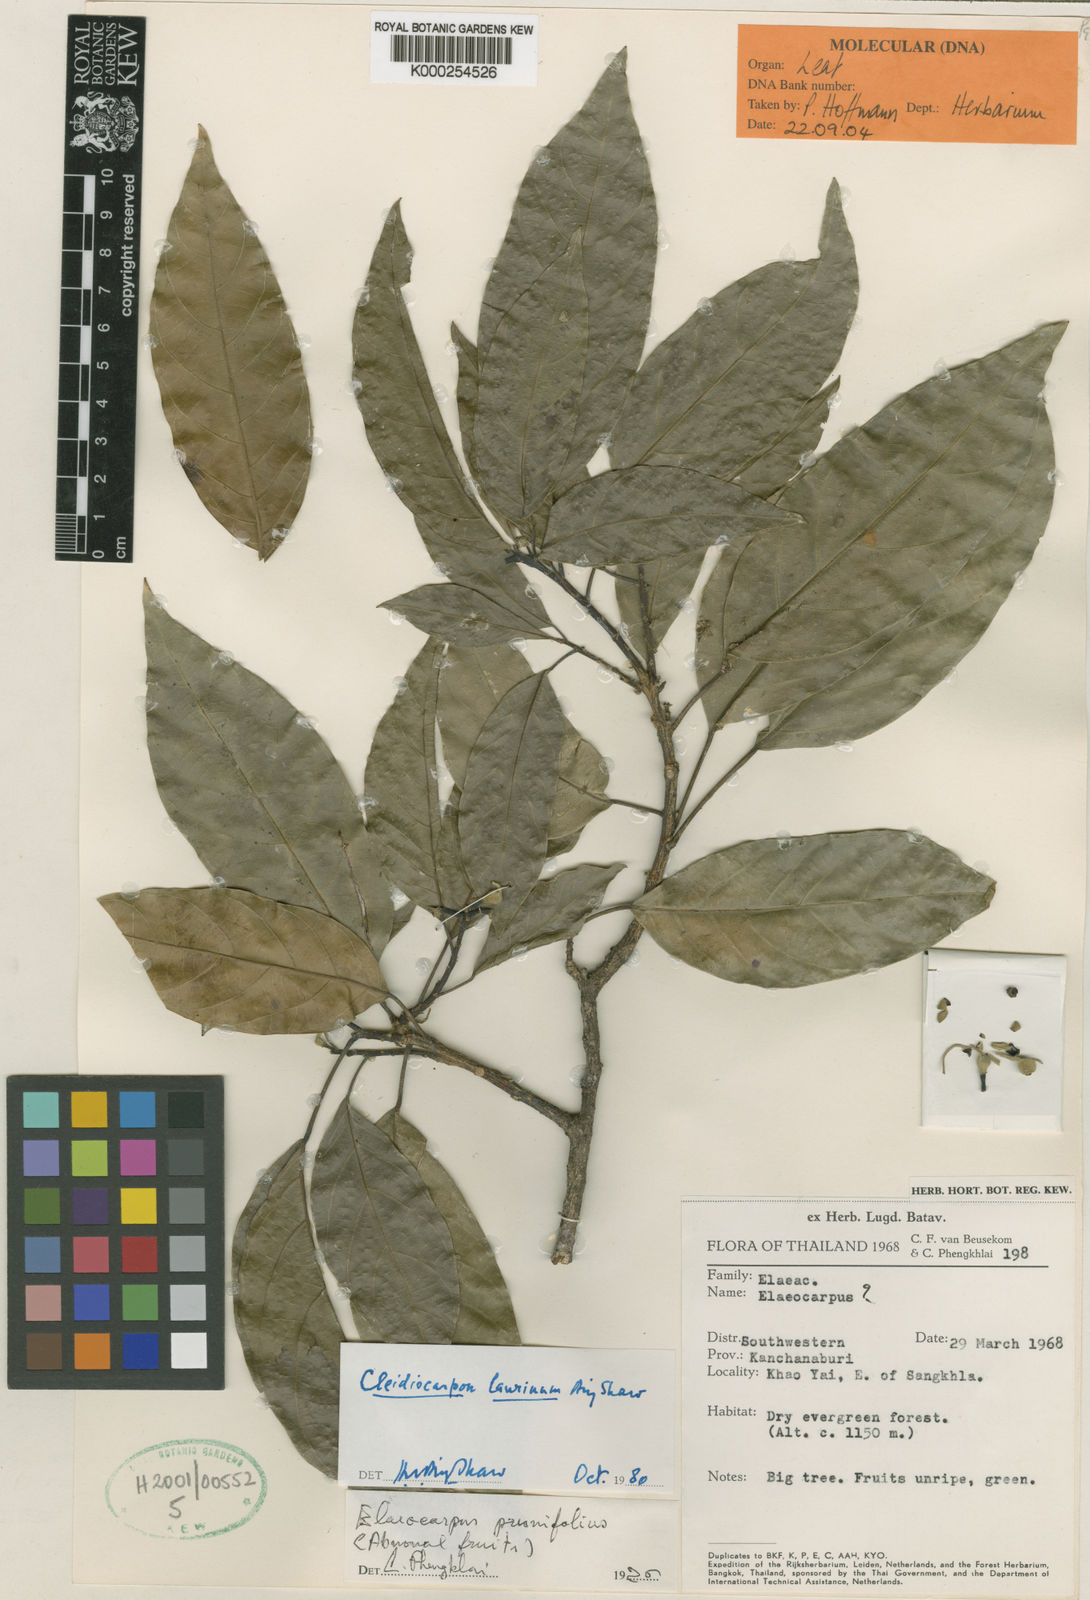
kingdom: Plantae
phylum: Tracheophyta
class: Magnoliopsida
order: Malpighiales
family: Euphorbiaceae
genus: Cleidiocarpon
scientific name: Cleidiocarpon laurinum
